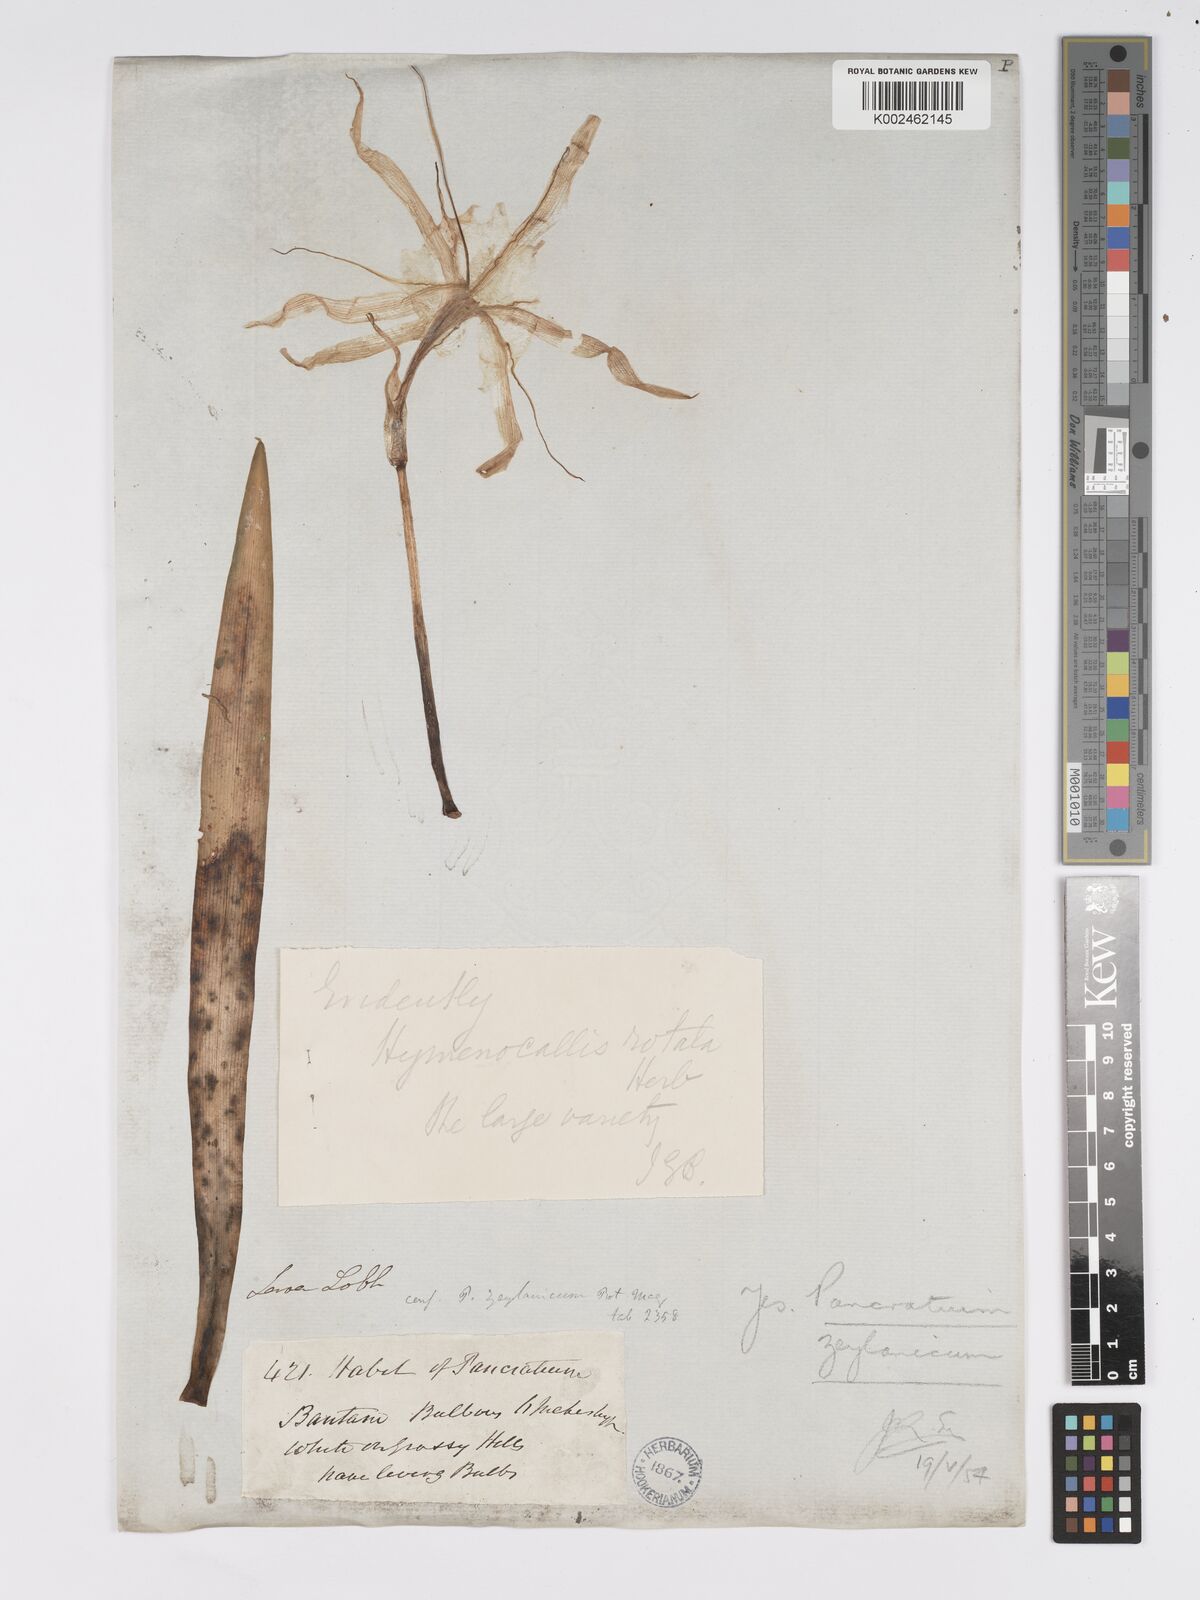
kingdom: Plantae
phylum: Tracheophyta
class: Liliopsida
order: Asparagales
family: Amaryllidaceae
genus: Pancratium
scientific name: Pancratium zeylanicum
